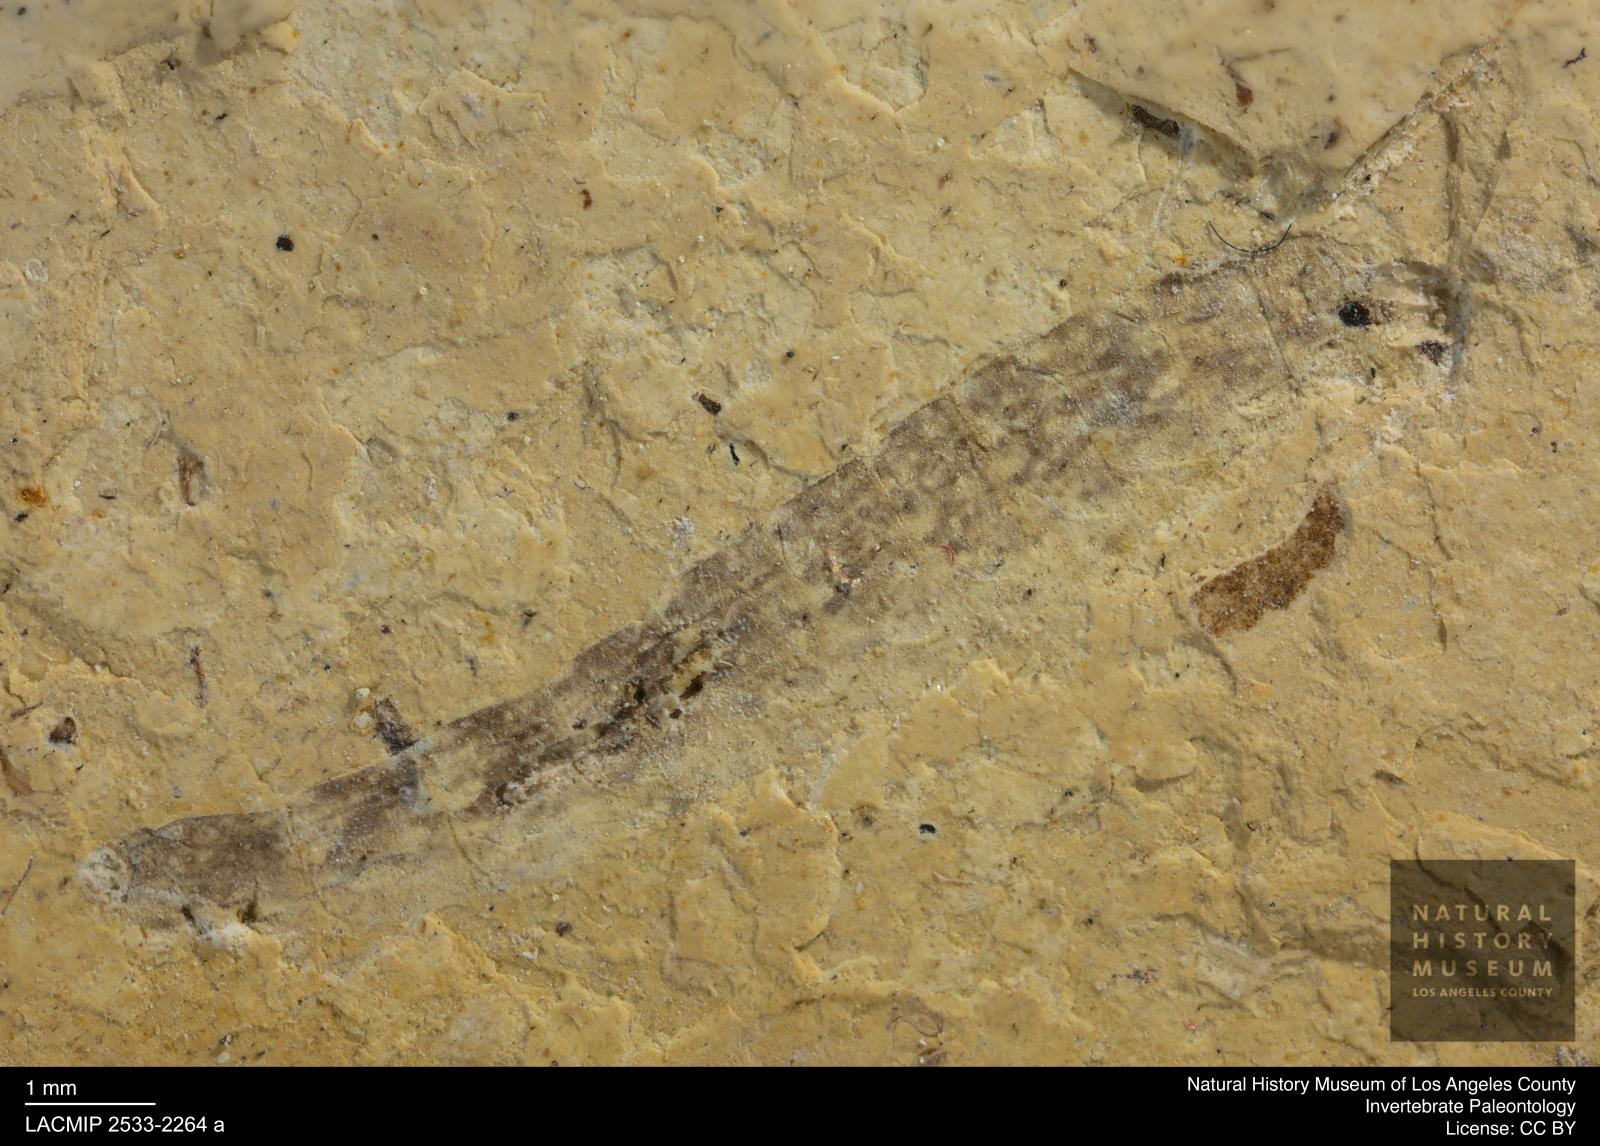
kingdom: Animalia
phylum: Arthropoda
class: Insecta
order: Diptera
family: Stratiomyidae
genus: Odontomyia
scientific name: Odontomyia
